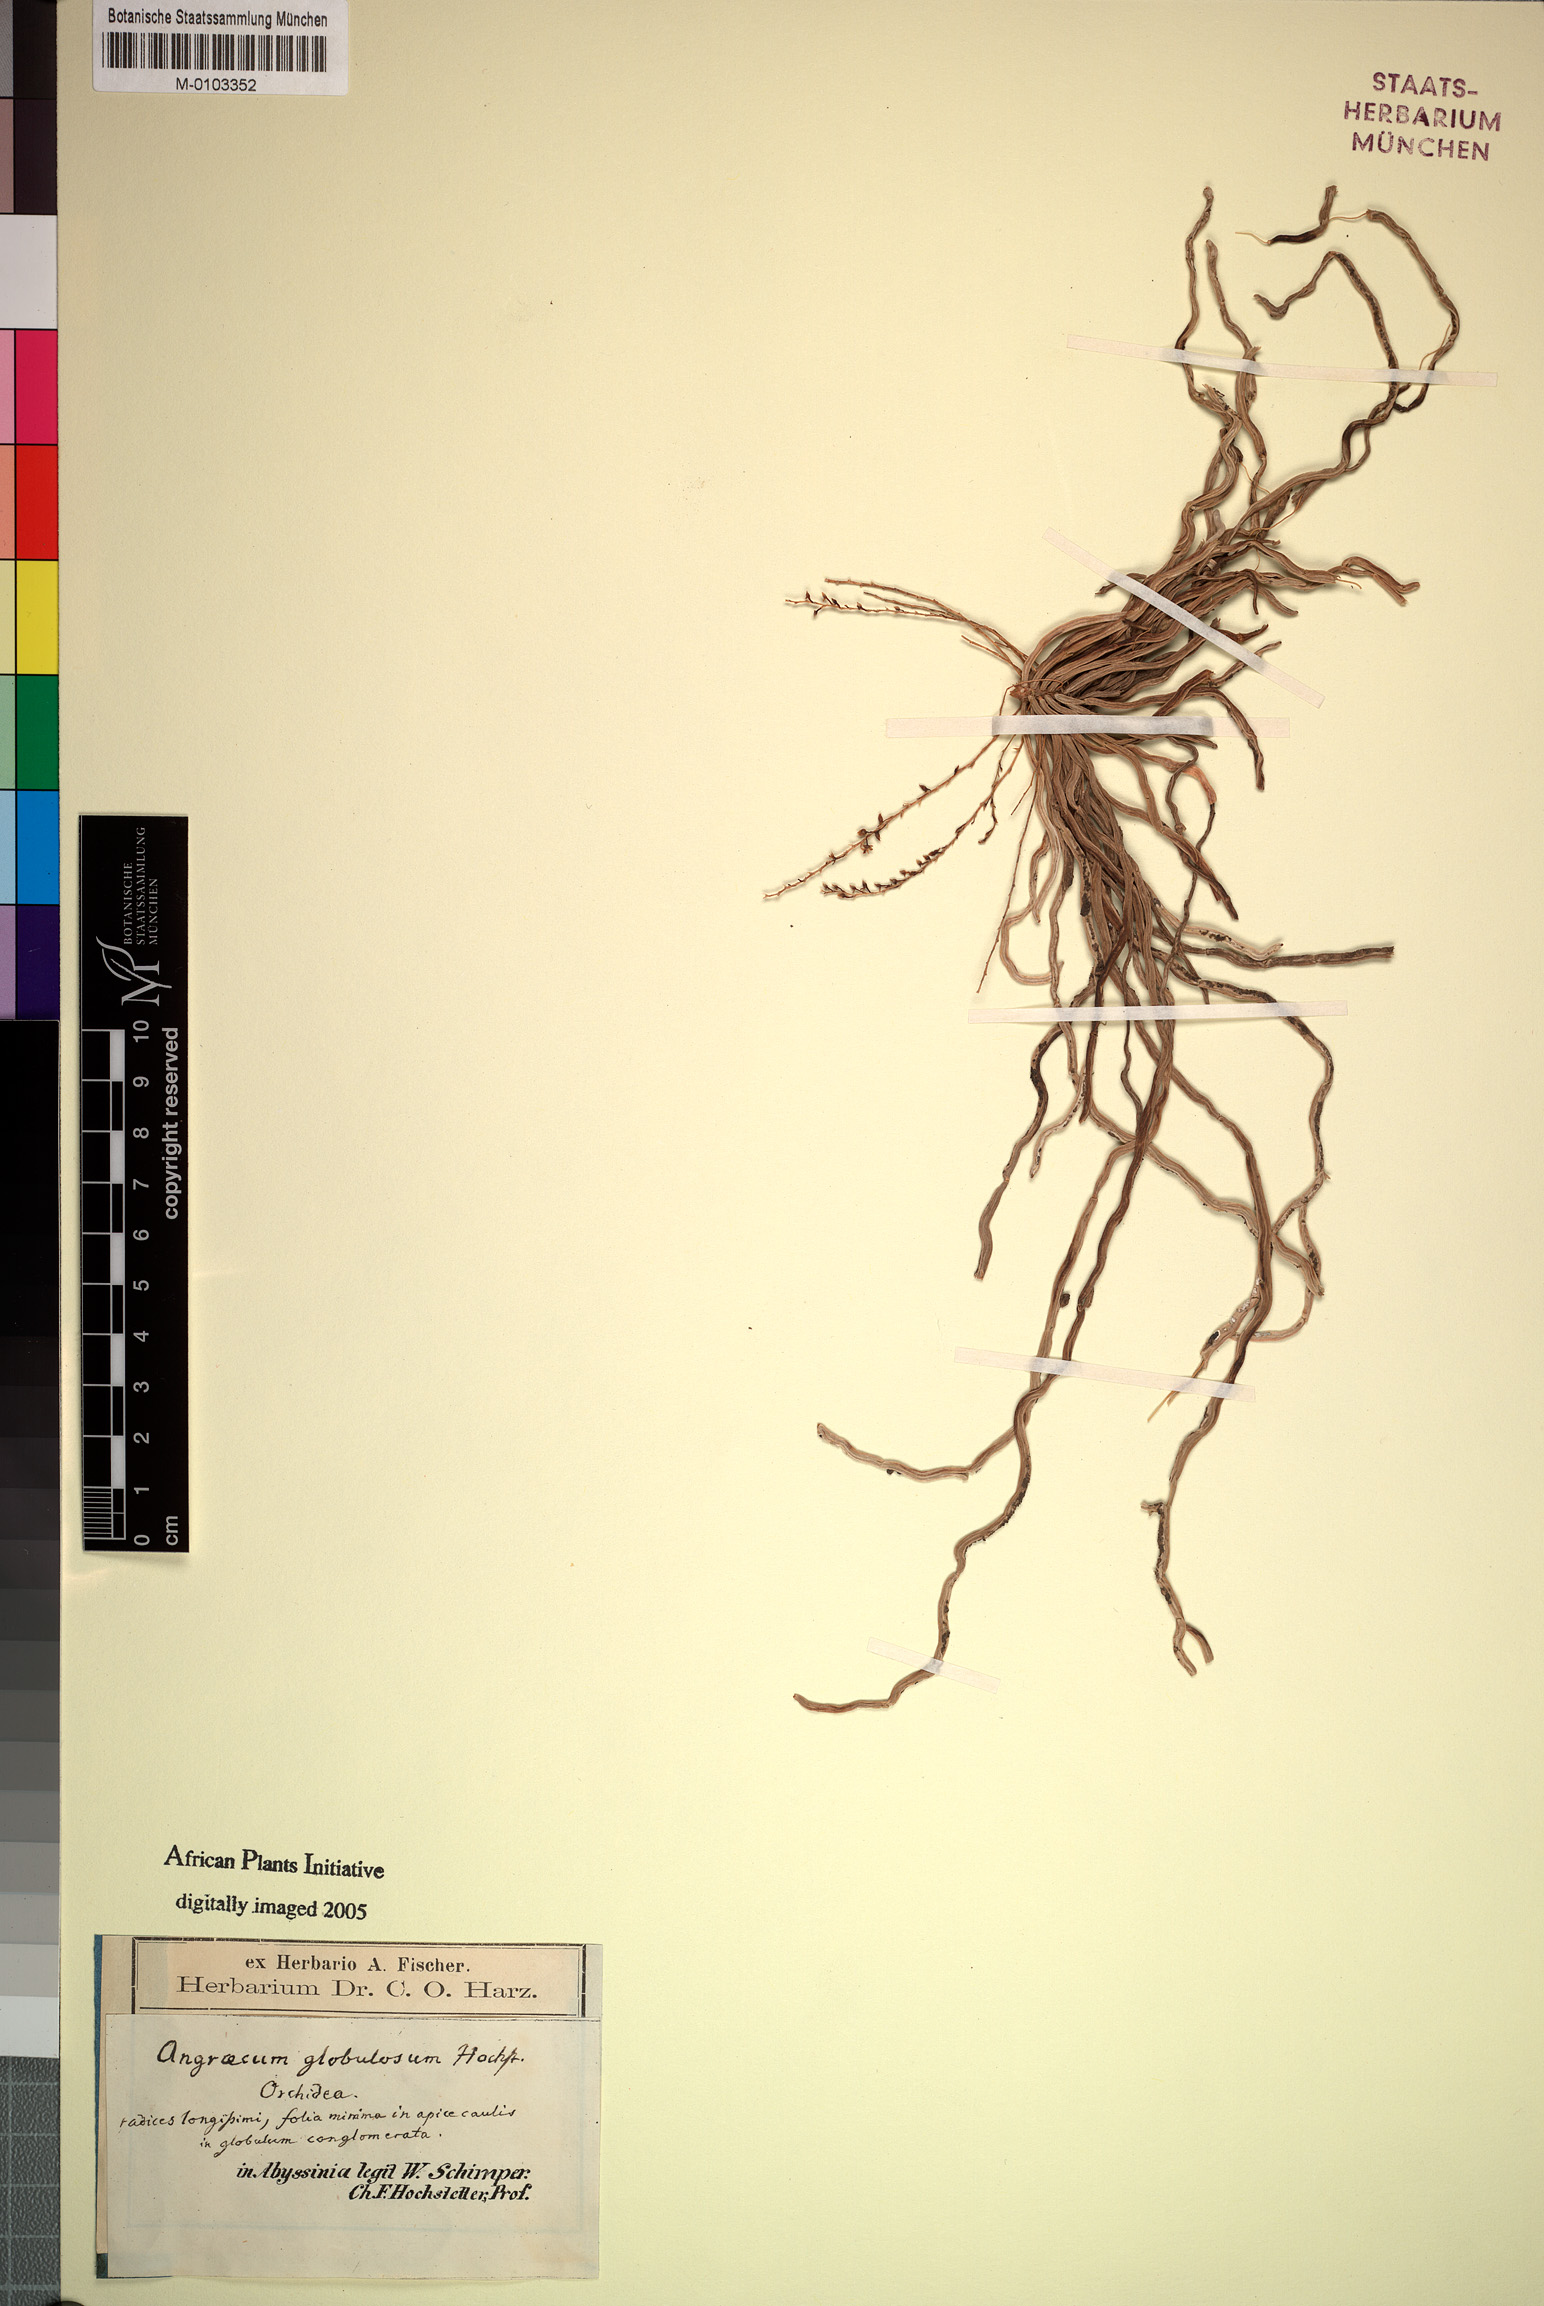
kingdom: Plantae
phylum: Tracheophyta
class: Liliopsida
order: Asparagales
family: Orchidaceae
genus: Microcoelia
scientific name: Microcoelia globulosa
